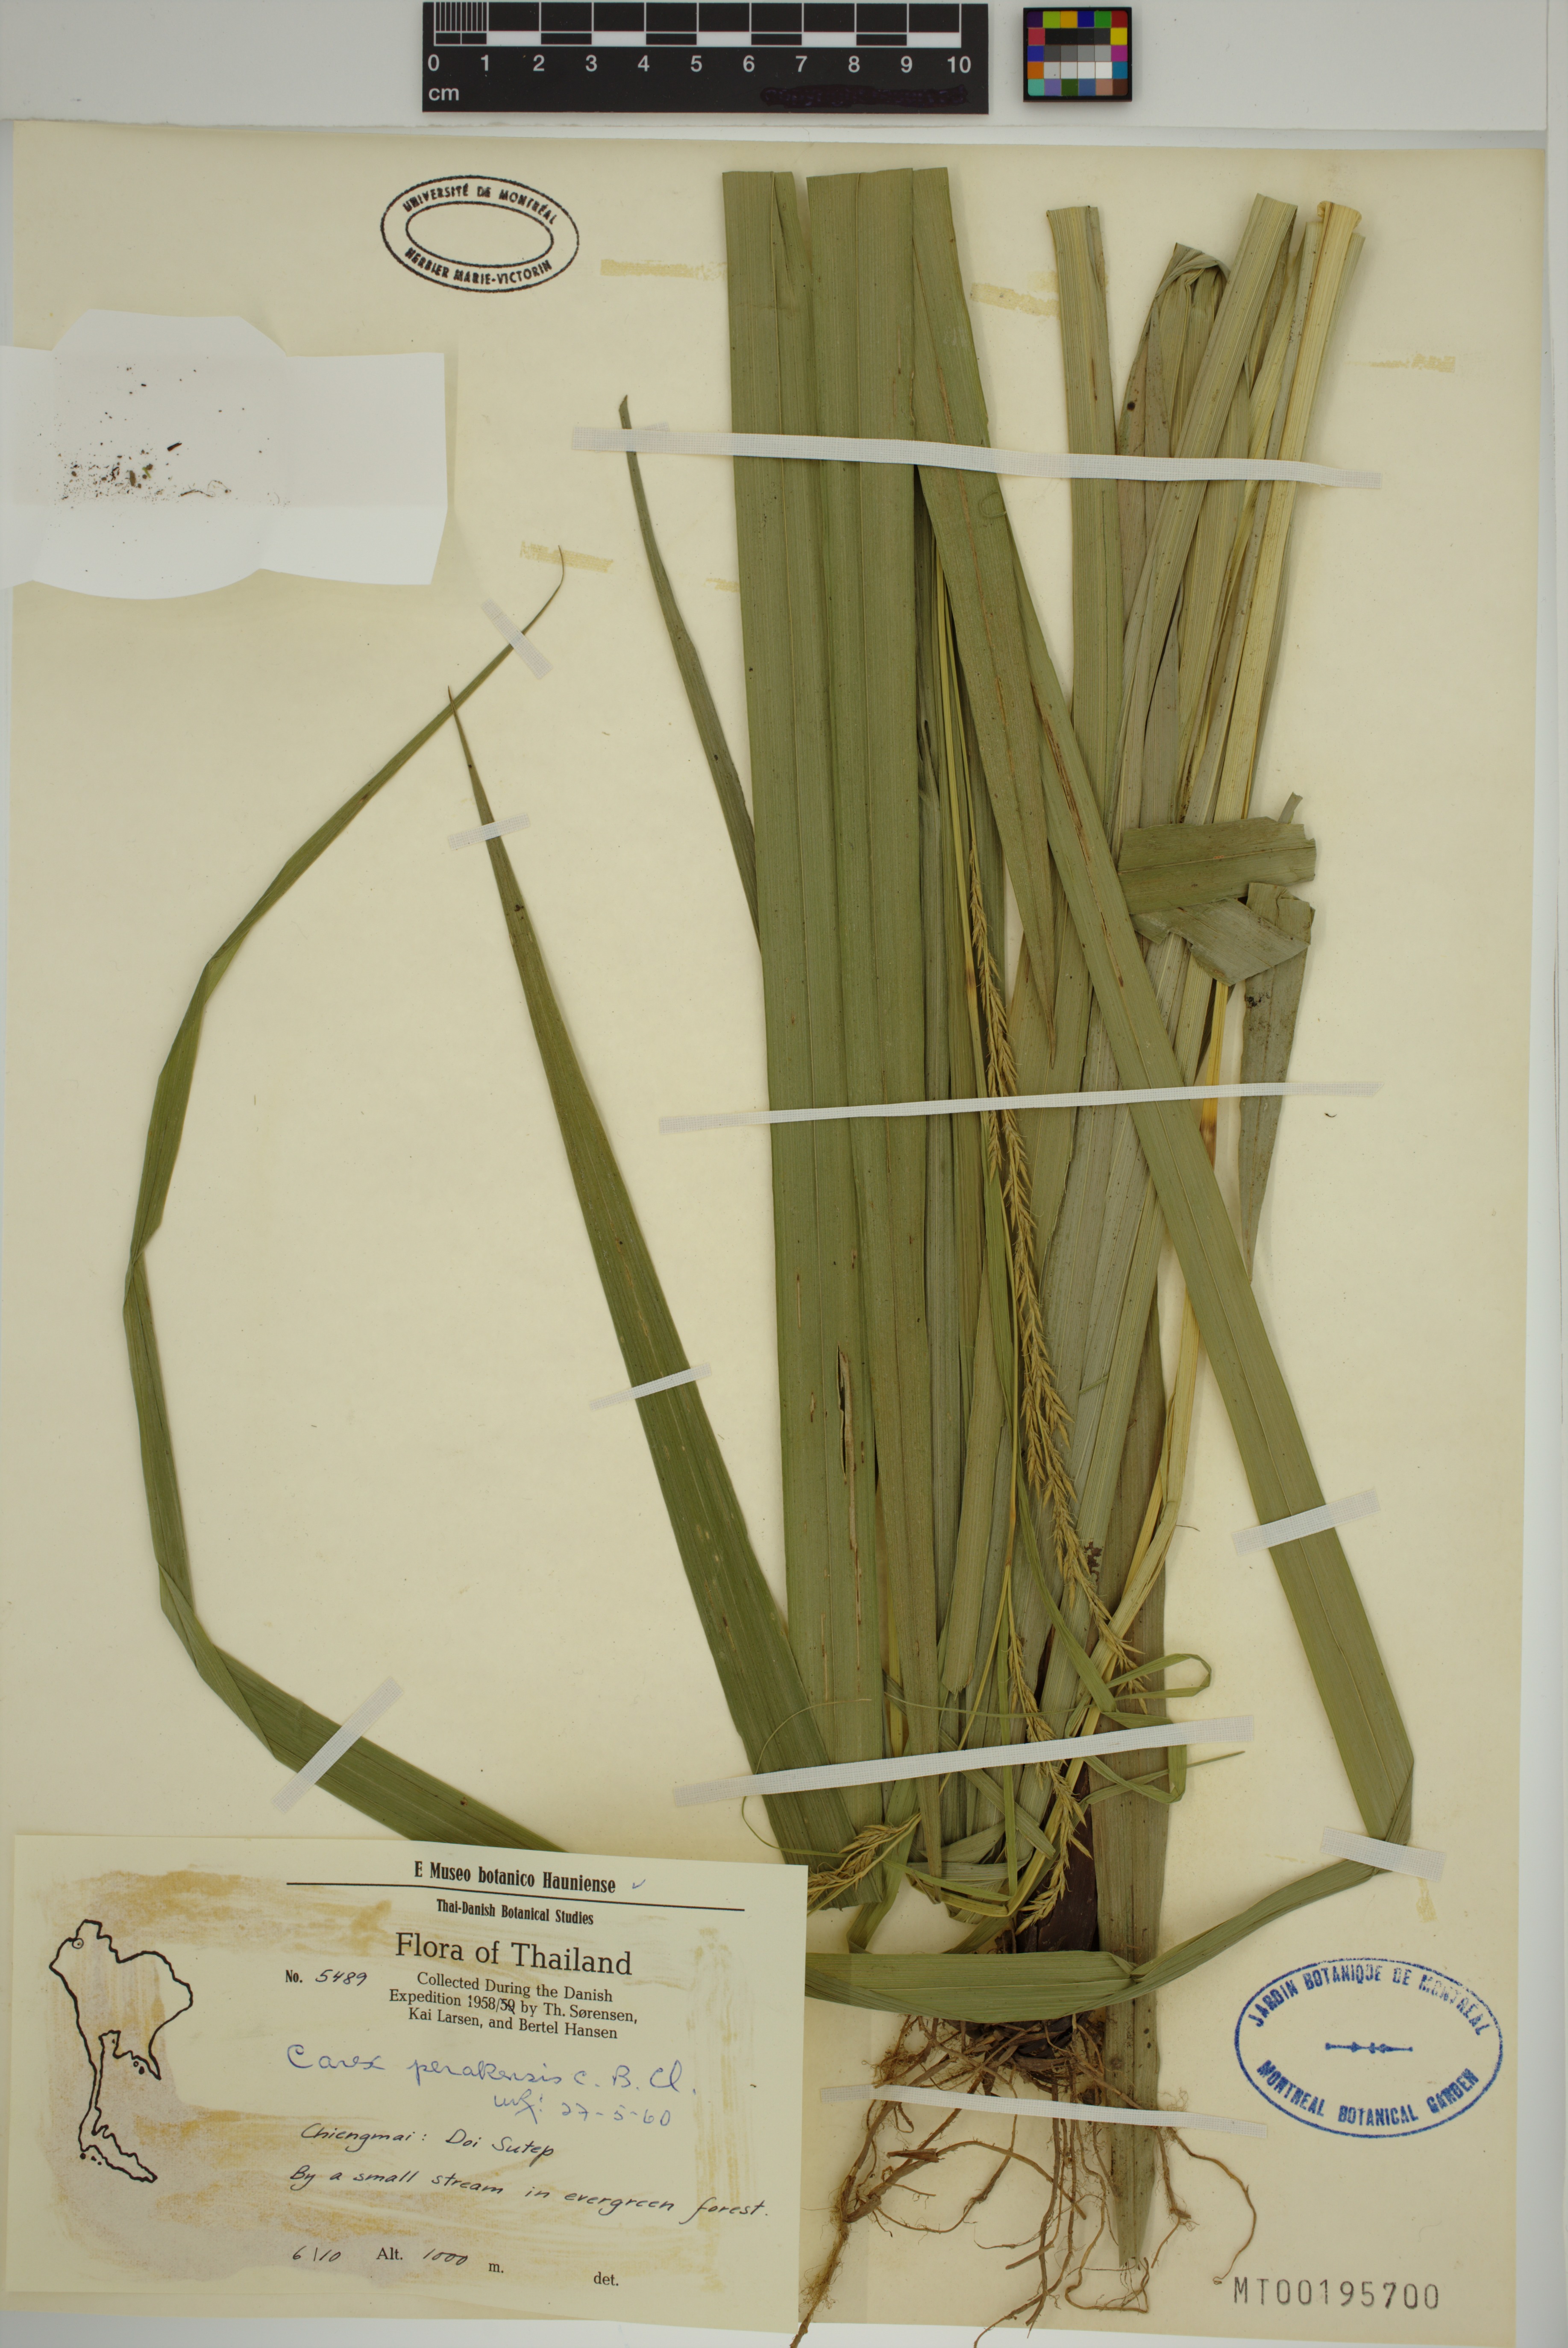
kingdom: Plantae
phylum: Tracheophyta
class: Liliopsida
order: Poales
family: Cyperaceae
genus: Carex
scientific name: Carex perakensis
